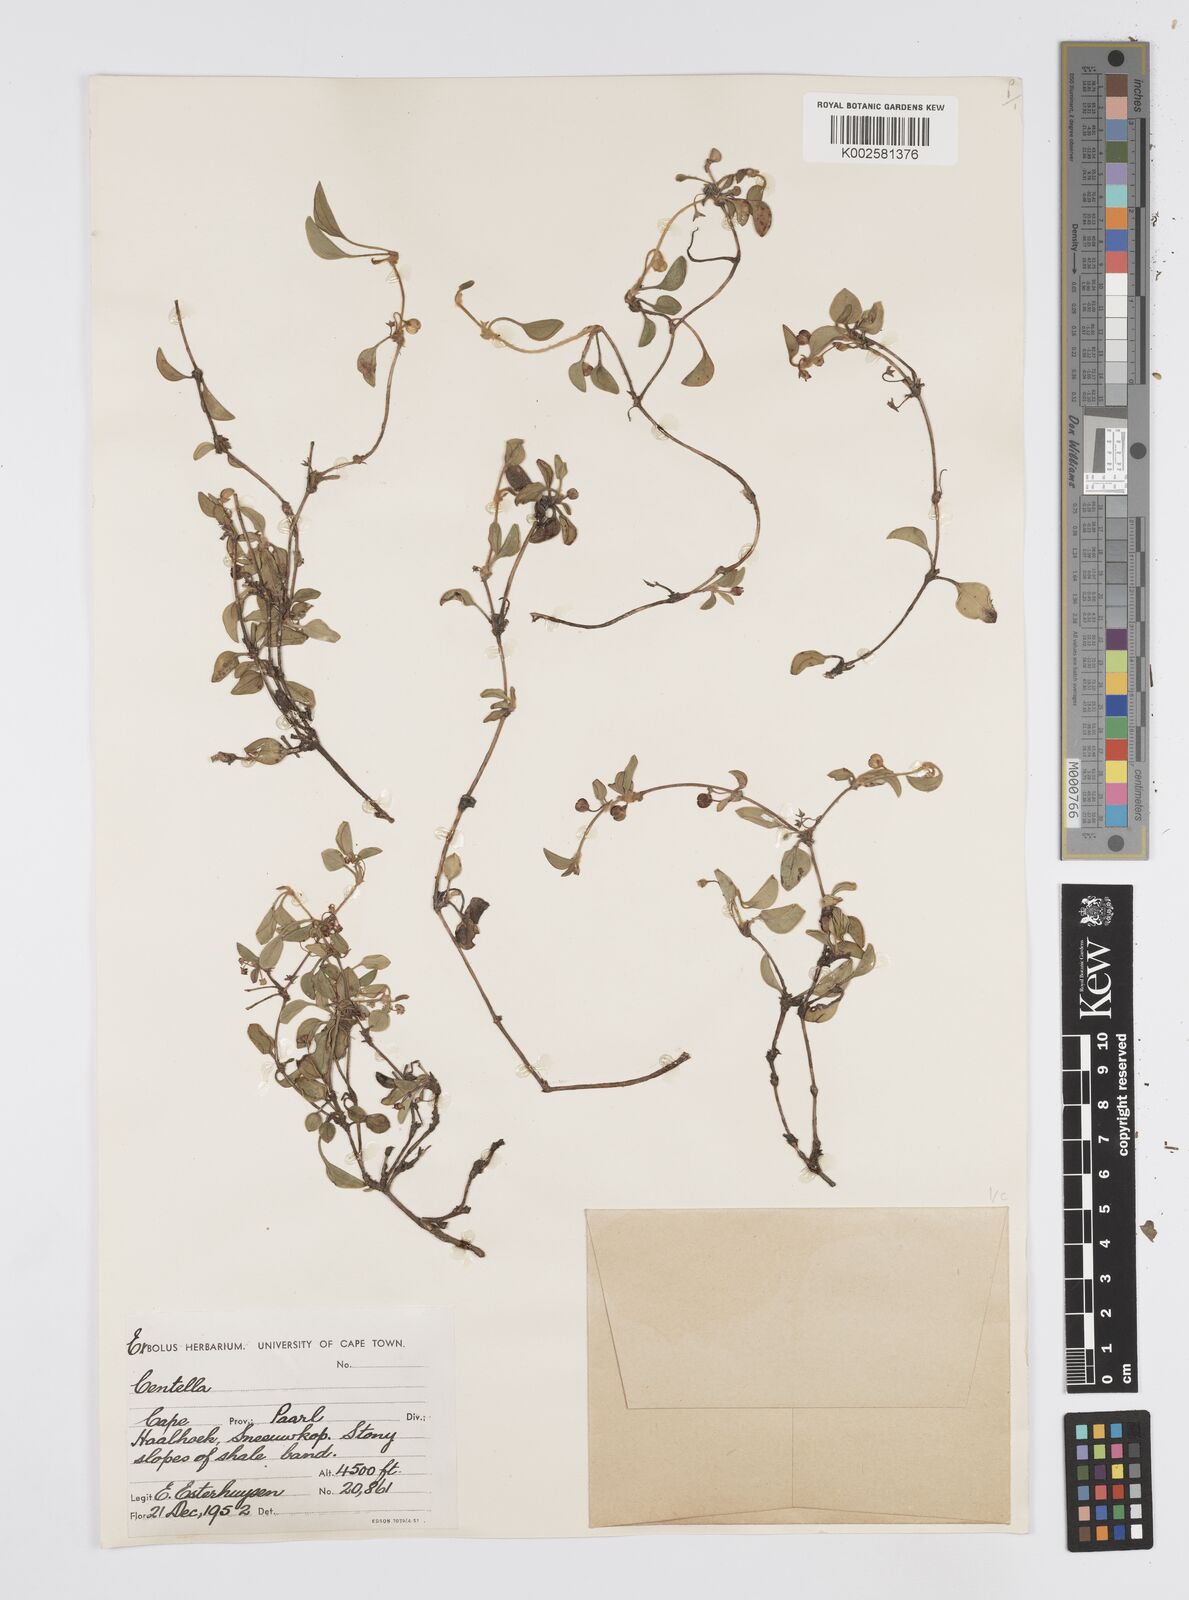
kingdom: Plantae
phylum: Tracheophyta
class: Magnoliopsida
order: Apiales
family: Apiaceae
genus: Centella
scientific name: Centella
